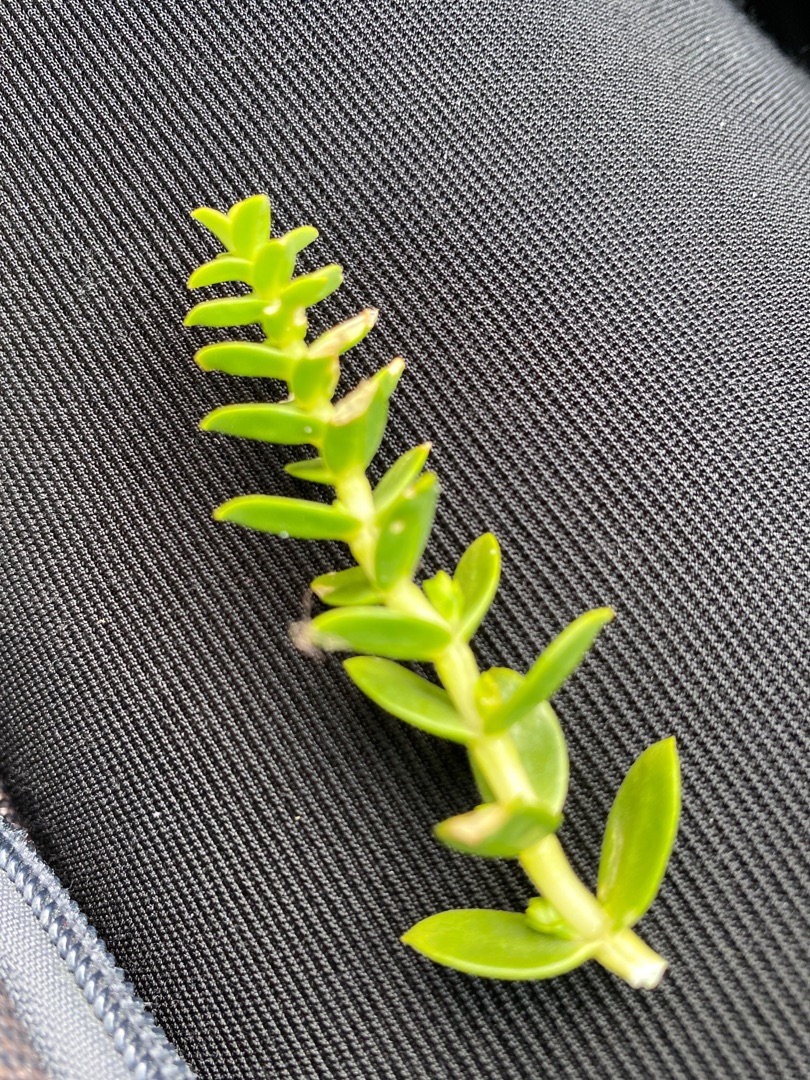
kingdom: Plantae
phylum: Tracheophyta
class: Magnoliopsida
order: Caryophyllales
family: Caryophyllaceae
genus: Honckenya
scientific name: Honckenya peploides
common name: Strandarve
